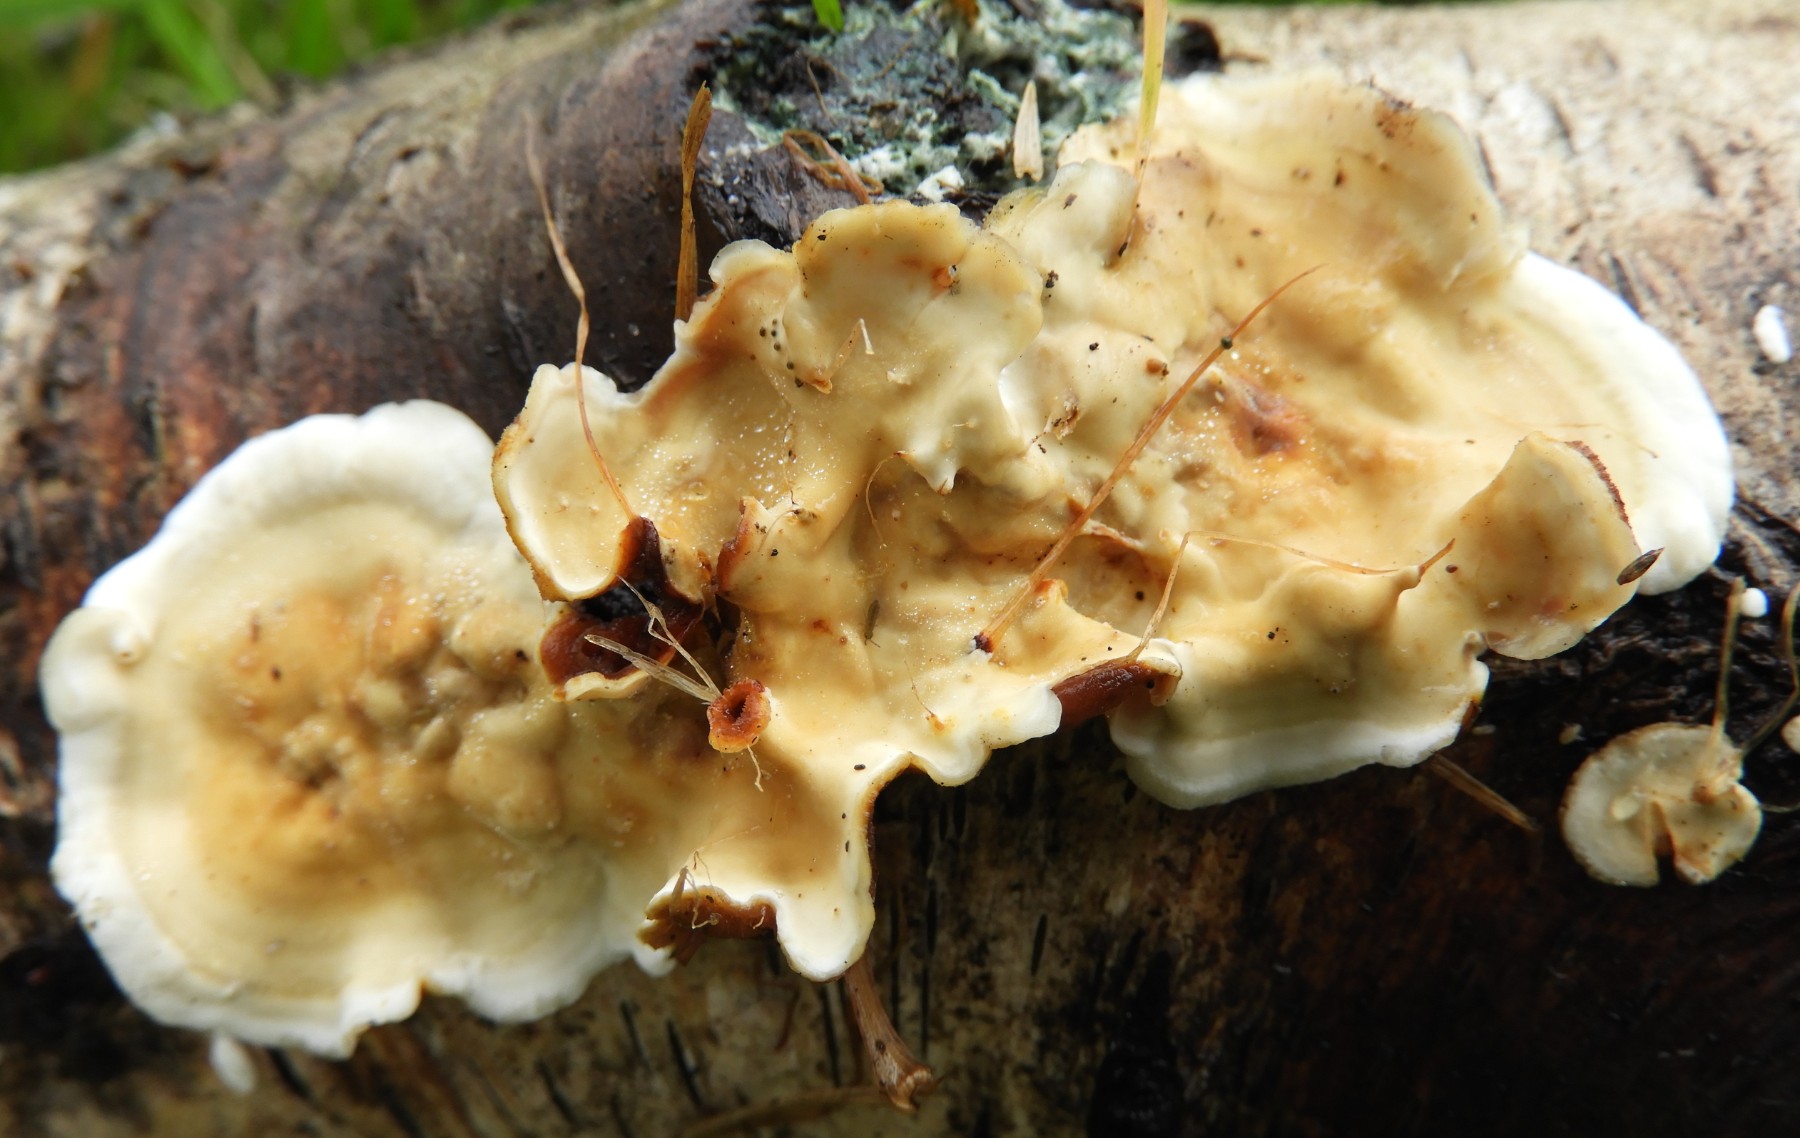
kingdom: Fungi
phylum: Basidiomycota
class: Agaricomycetes
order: Russulales
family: Stereaceae
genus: Stereum
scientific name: Stereum hirsutum
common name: håret lædersvamp
